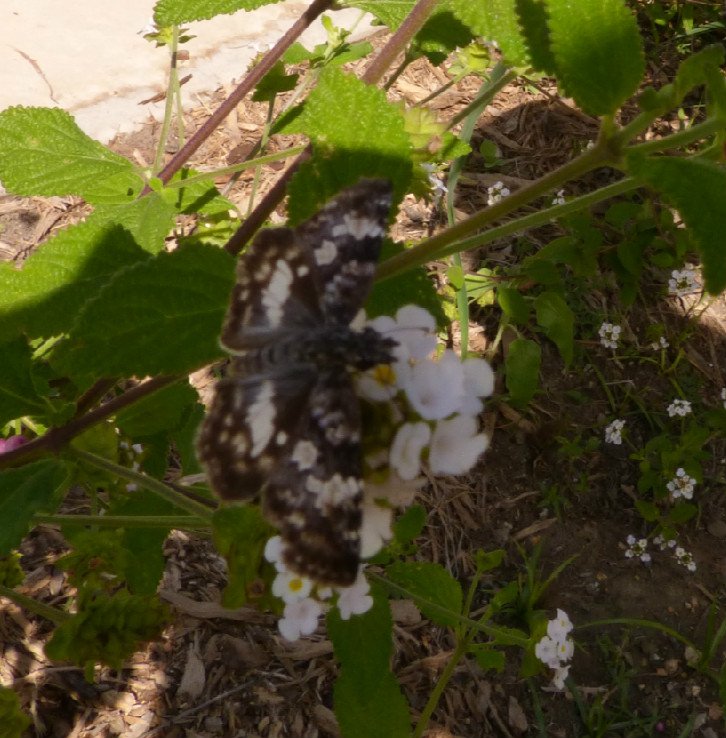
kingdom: Animalia
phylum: Arthropoda
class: Insecta
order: Lepidoptera
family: Hesperiidae
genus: Chiomara
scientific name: Chiomara asychis
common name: White-patched Skipper
